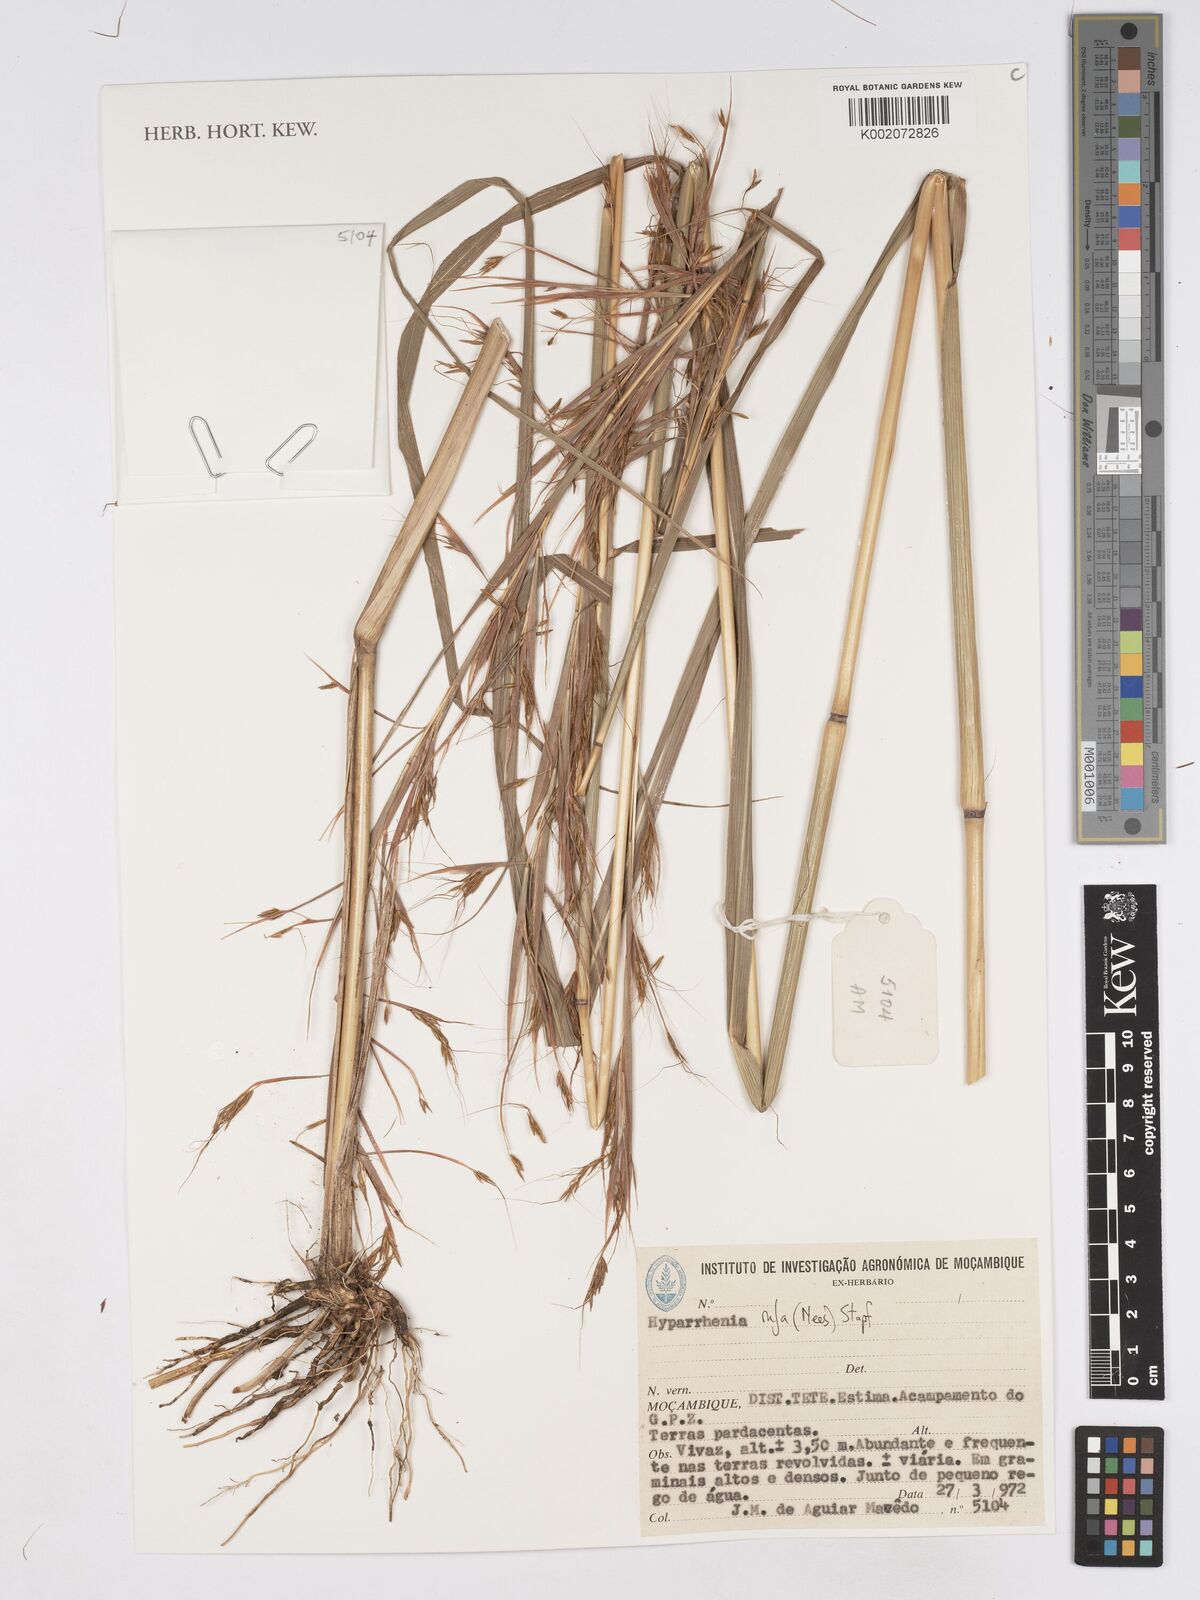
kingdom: Plantae
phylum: Tracheophyta
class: Liliopsida
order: Poales
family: Poaceae
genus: Hyparrhenia
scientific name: Hyparrhenia rufa
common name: Jaraguagrass
